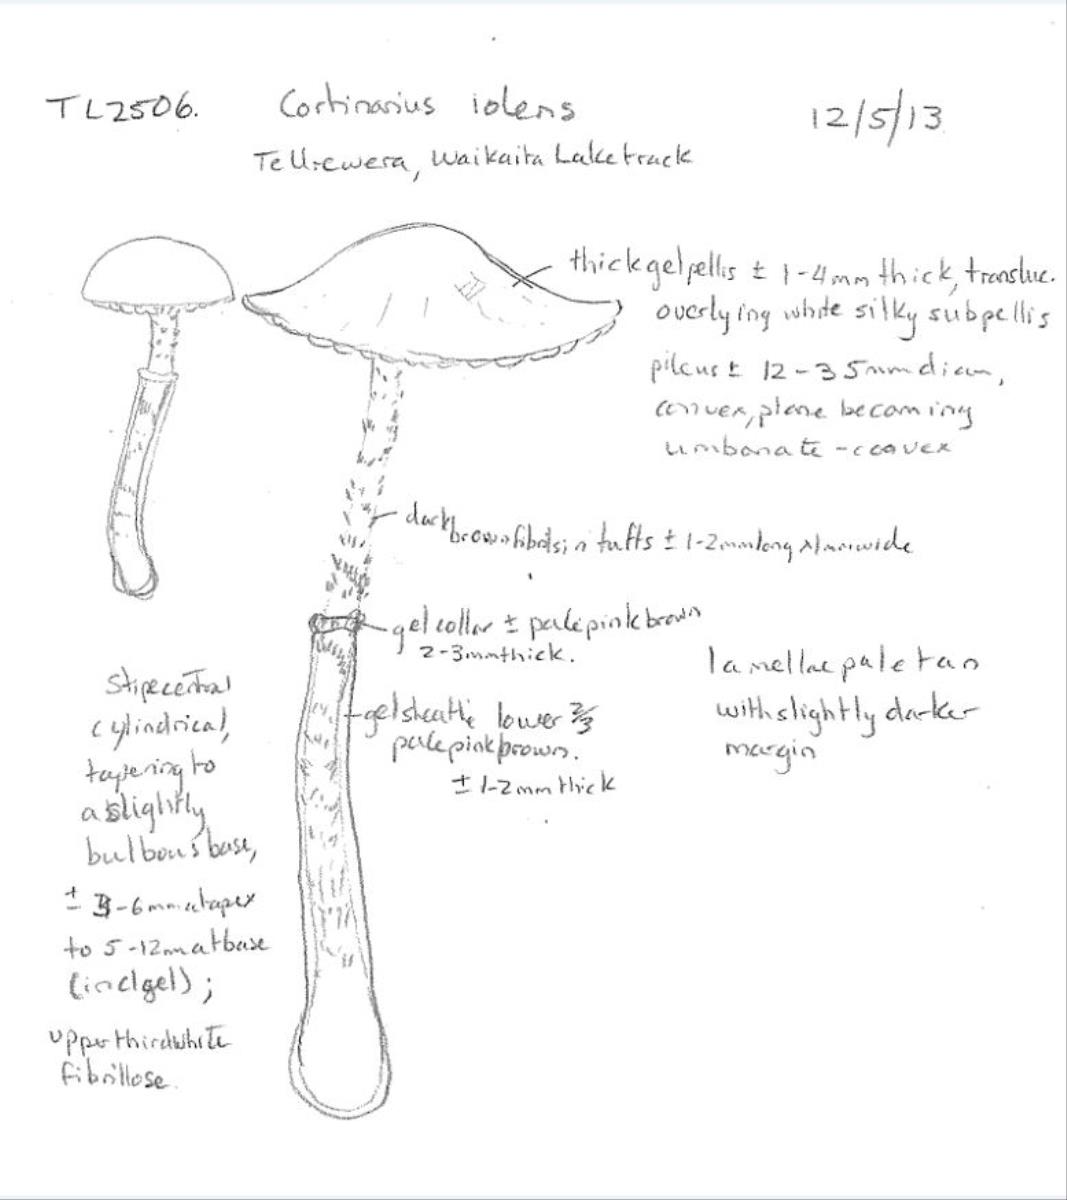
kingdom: Fungi
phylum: Basidiomycota
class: Agaricomycetes
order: Agaricales
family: Cortinariaceae
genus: Cortinarius
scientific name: Cortinarius naphthalinus
